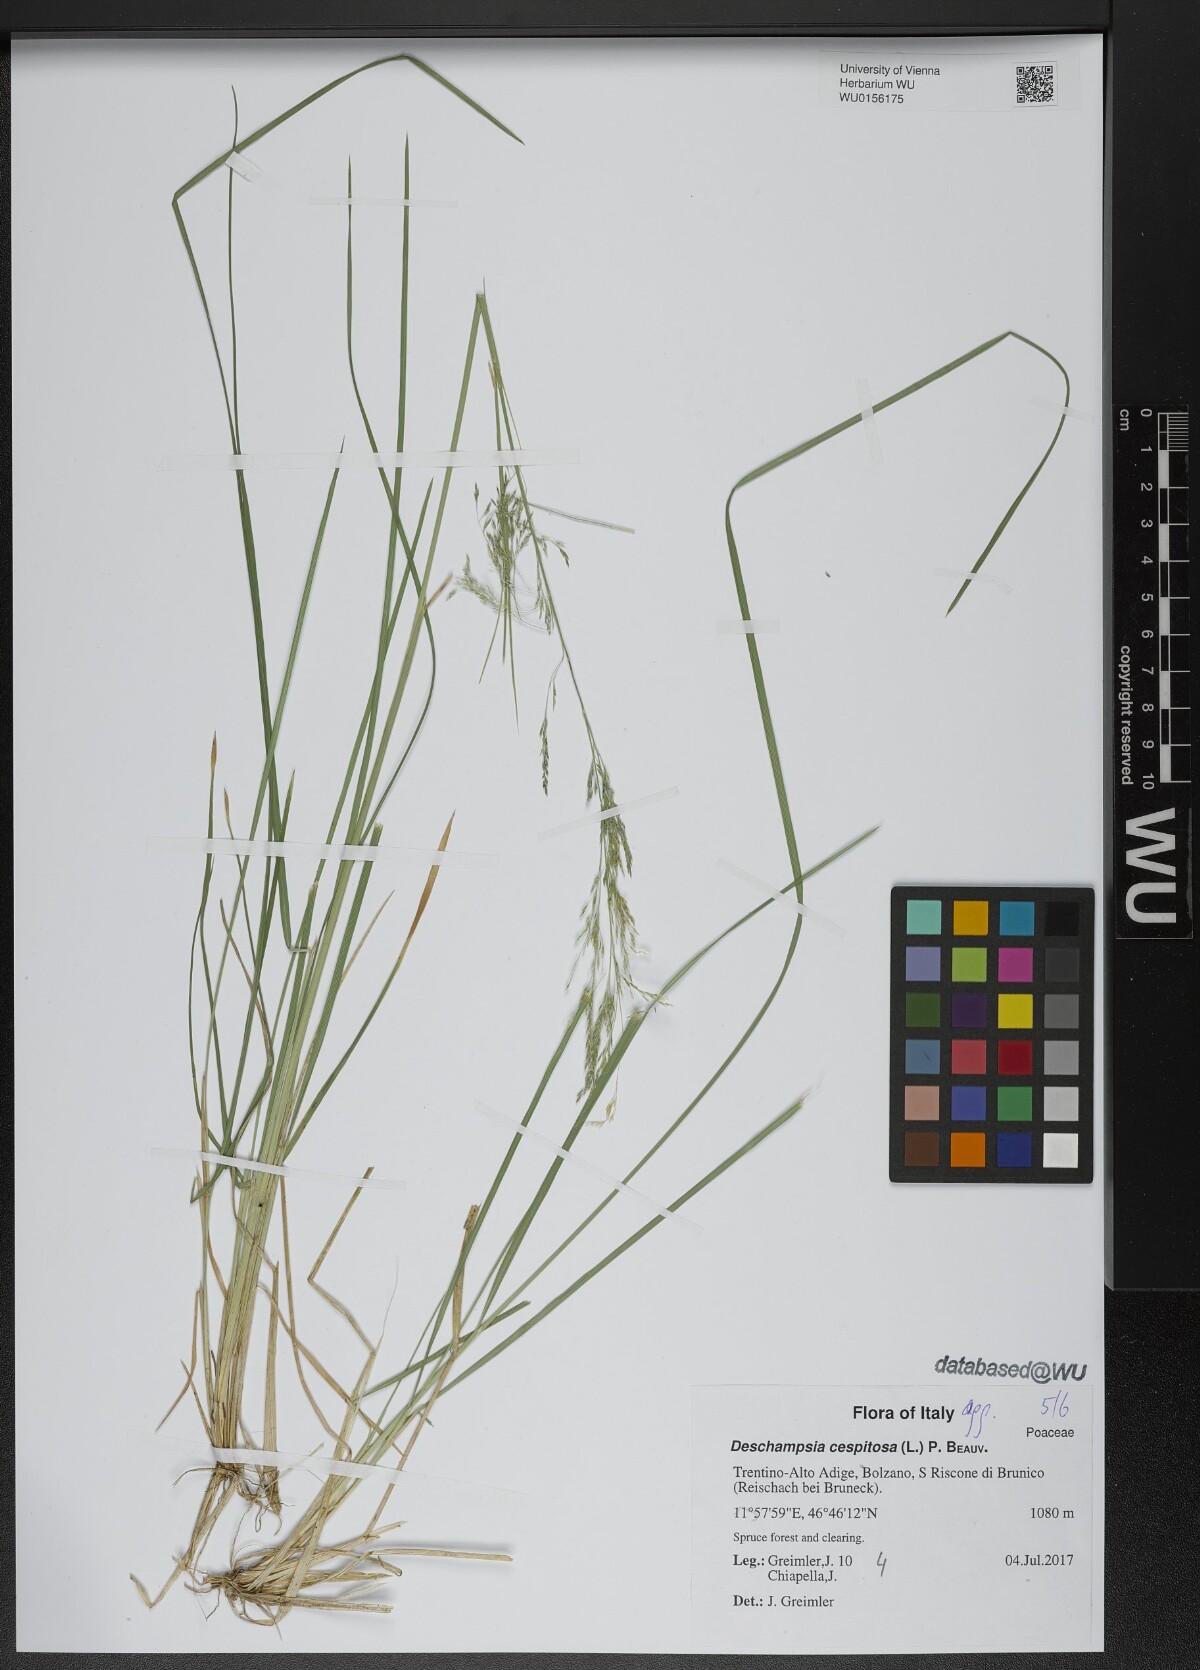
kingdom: Plantae
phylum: Tracheophyta
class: Liliopsida
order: Poales
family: Poaceae
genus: Deschampsia
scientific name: Deschampsia cespitosa
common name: Tufted hair-grass
